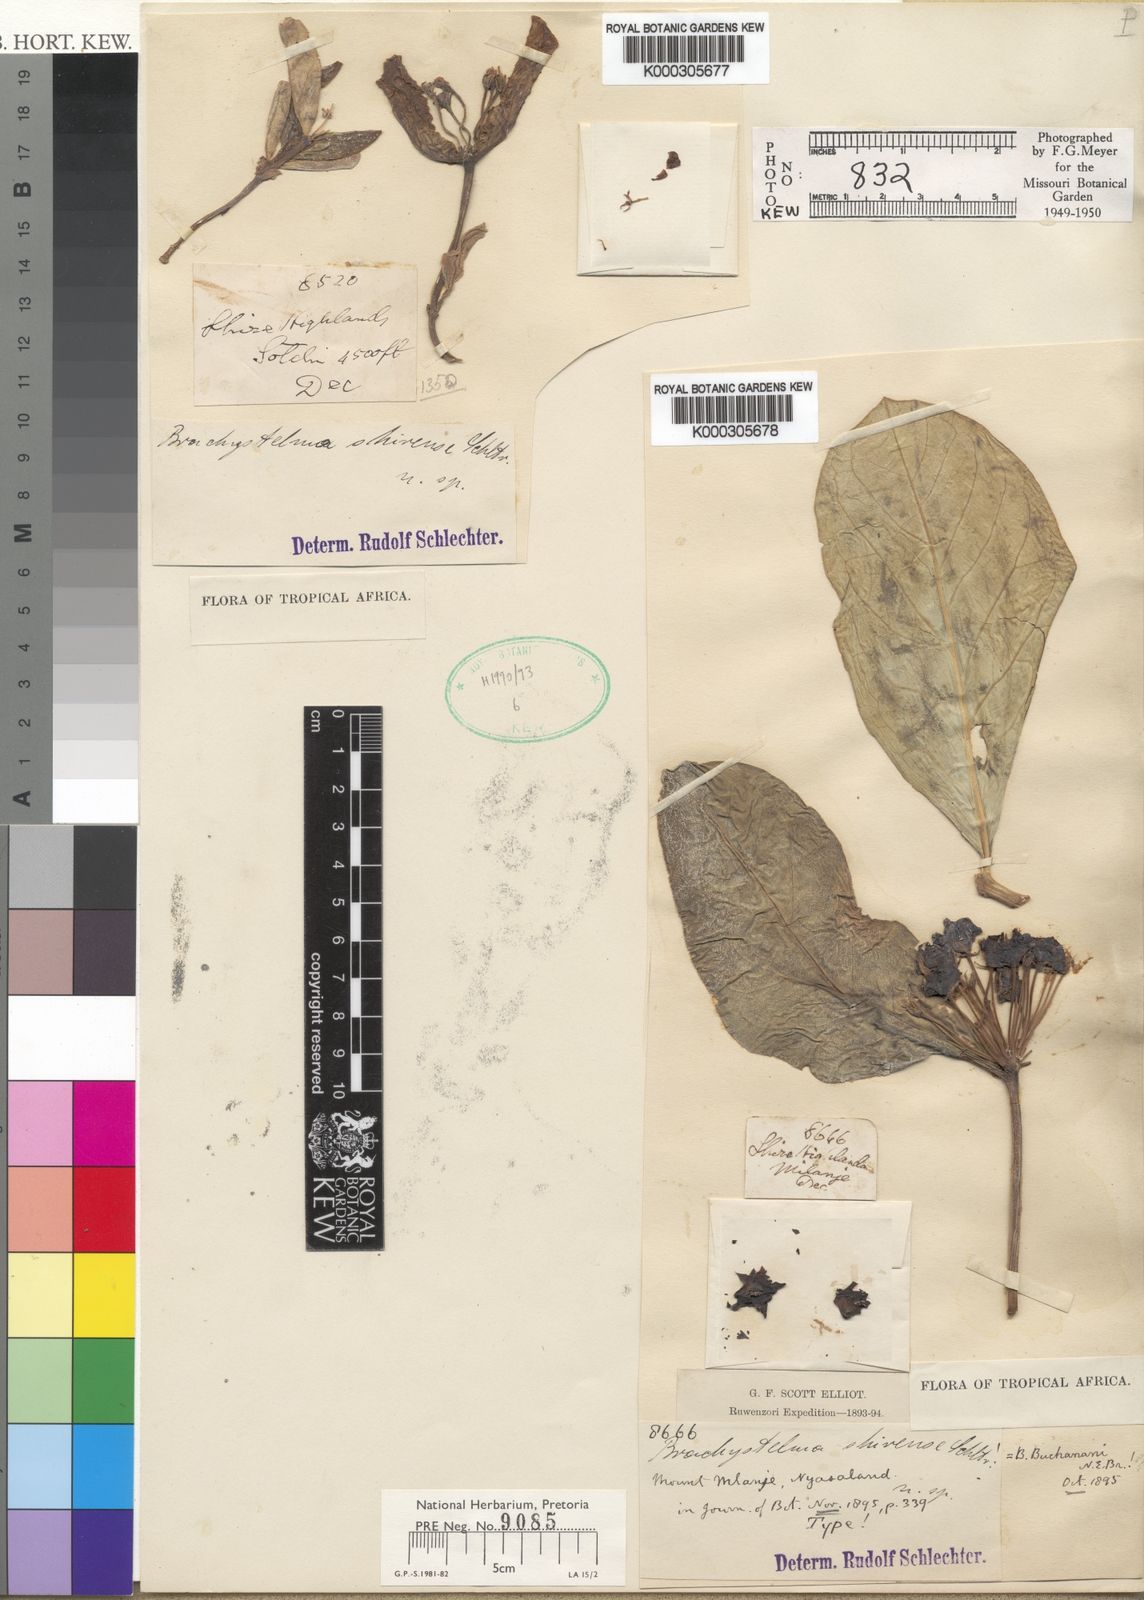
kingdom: Plantae
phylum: Tracheophyta
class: Magnoliopsida
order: Gentianales
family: Apocynaceae
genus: Ceropegia
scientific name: Ceropegia buchananii
